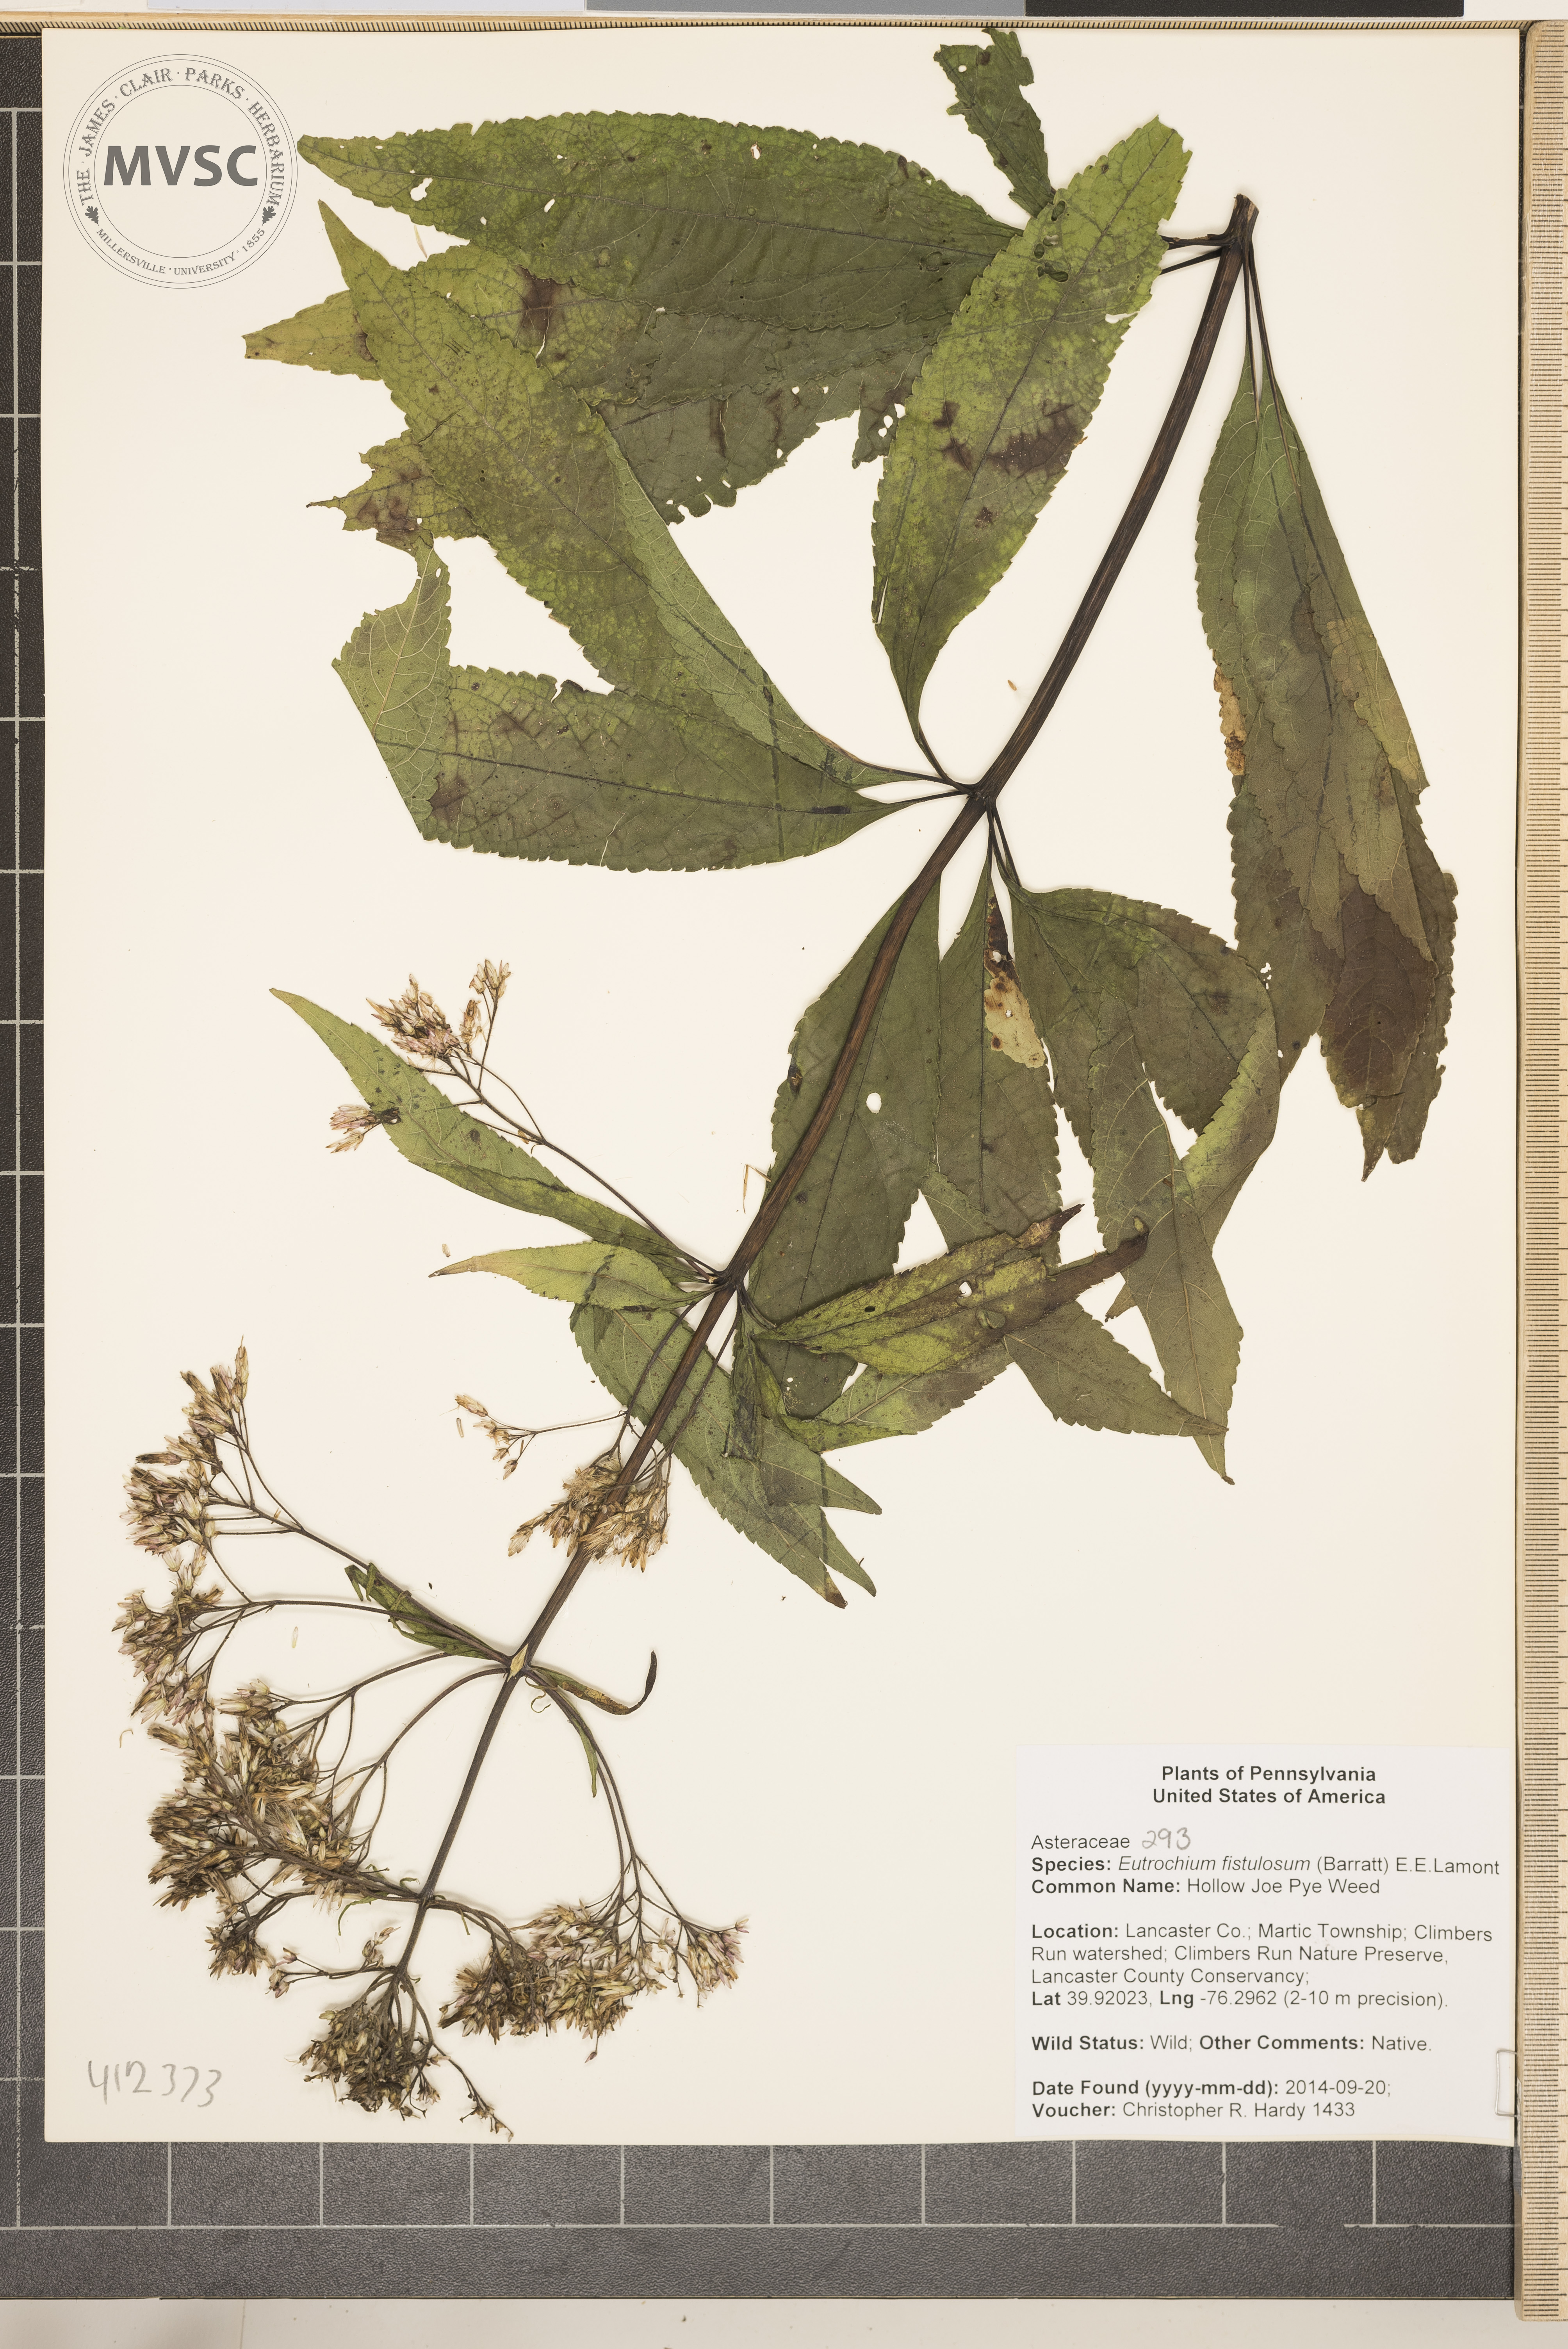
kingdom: Plantae
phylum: Tracheophyta
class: Magnoliopsida
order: Asterales
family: Asteraceae
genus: Eutrochium
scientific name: Eutrochium fistulosum
